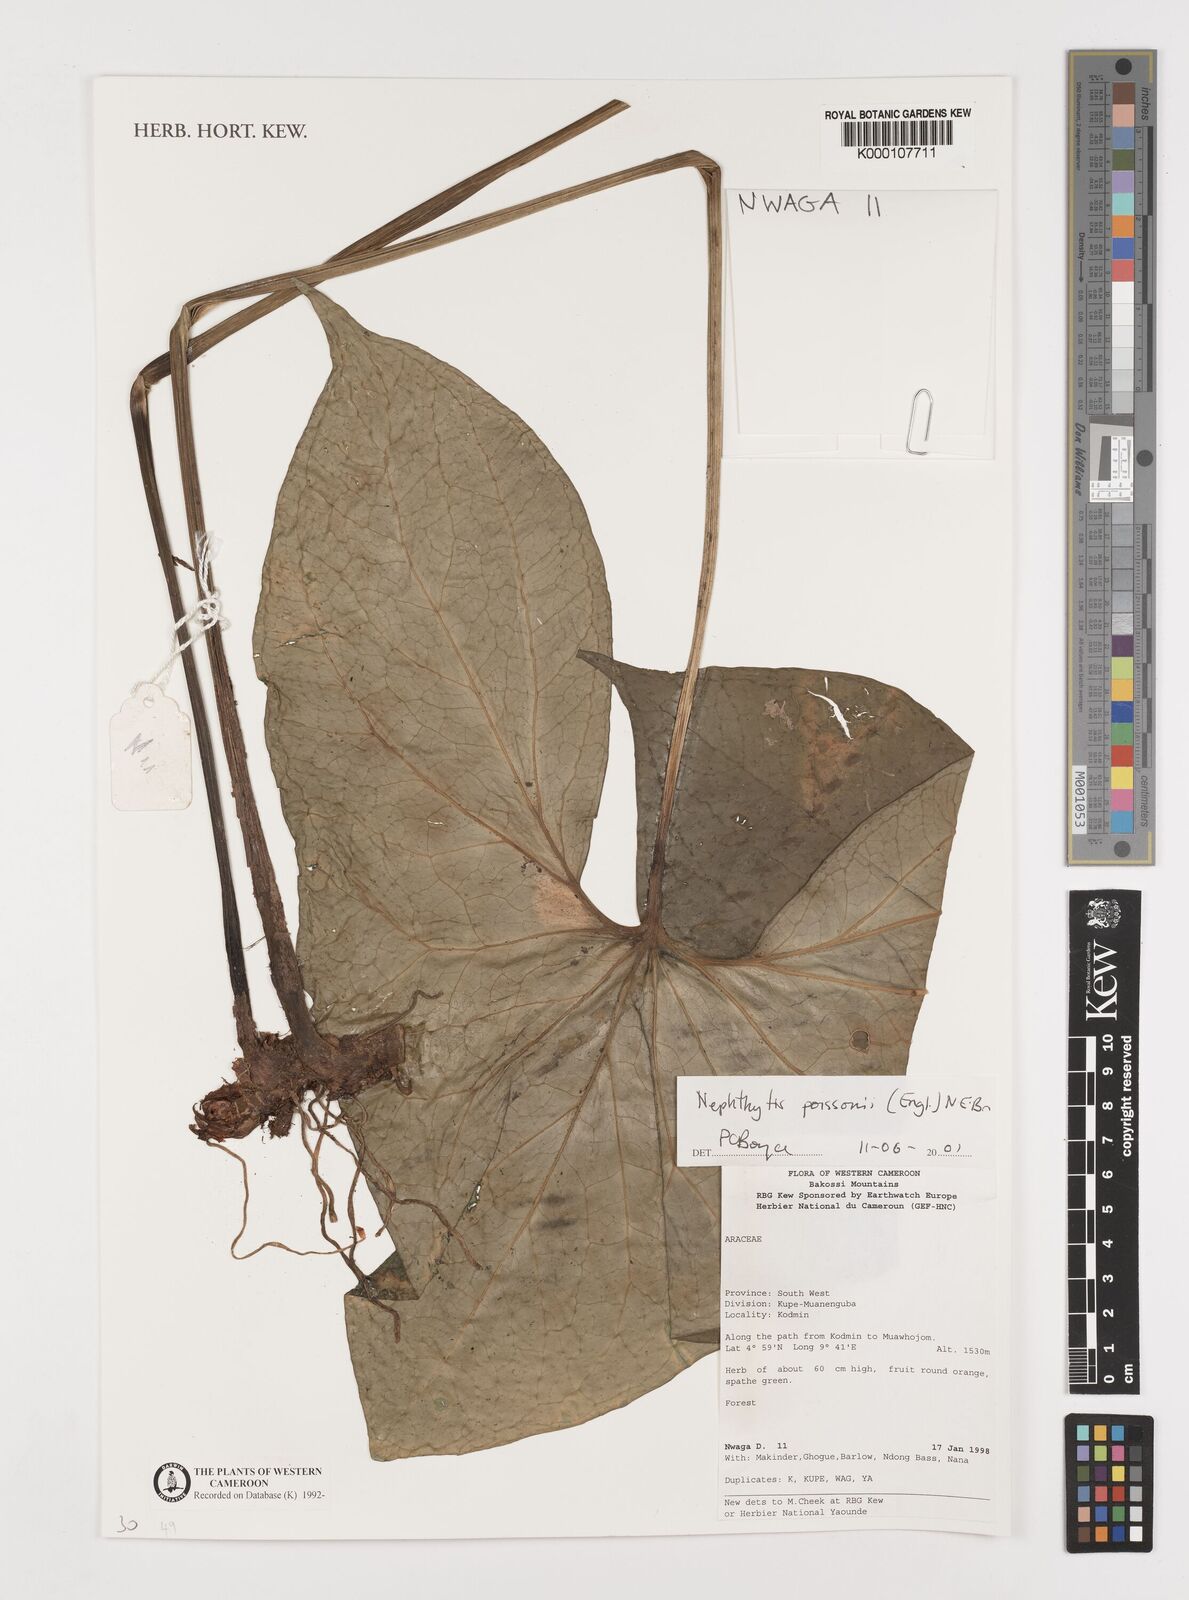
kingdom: Plantae
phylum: Tracheophyta
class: Liliopsida
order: Alismatales
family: Araceae
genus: Nephthytis
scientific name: Nephthytis poissonii
